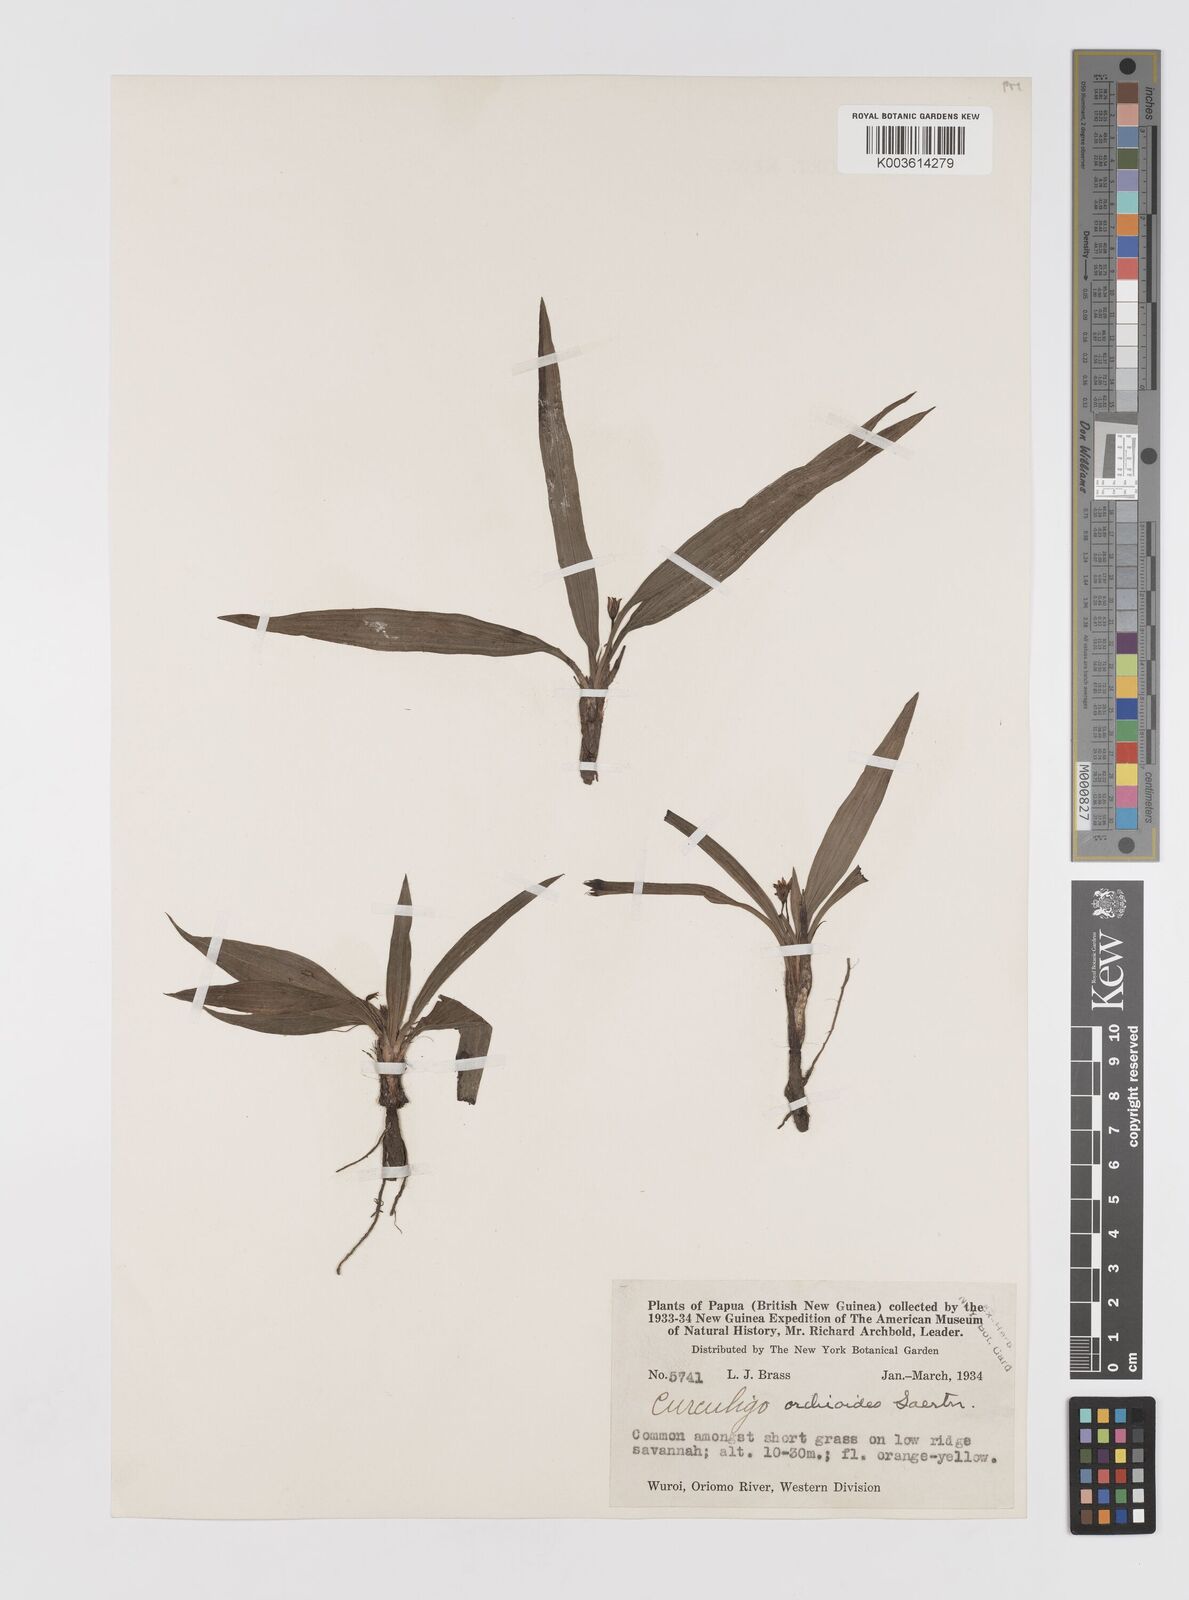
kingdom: Plantae
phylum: Tracheophyta
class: Liliopsida
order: Asparagales
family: Hypoxidaceae
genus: Curculigo
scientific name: Curculigo orchioides
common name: Golden eye-grass
